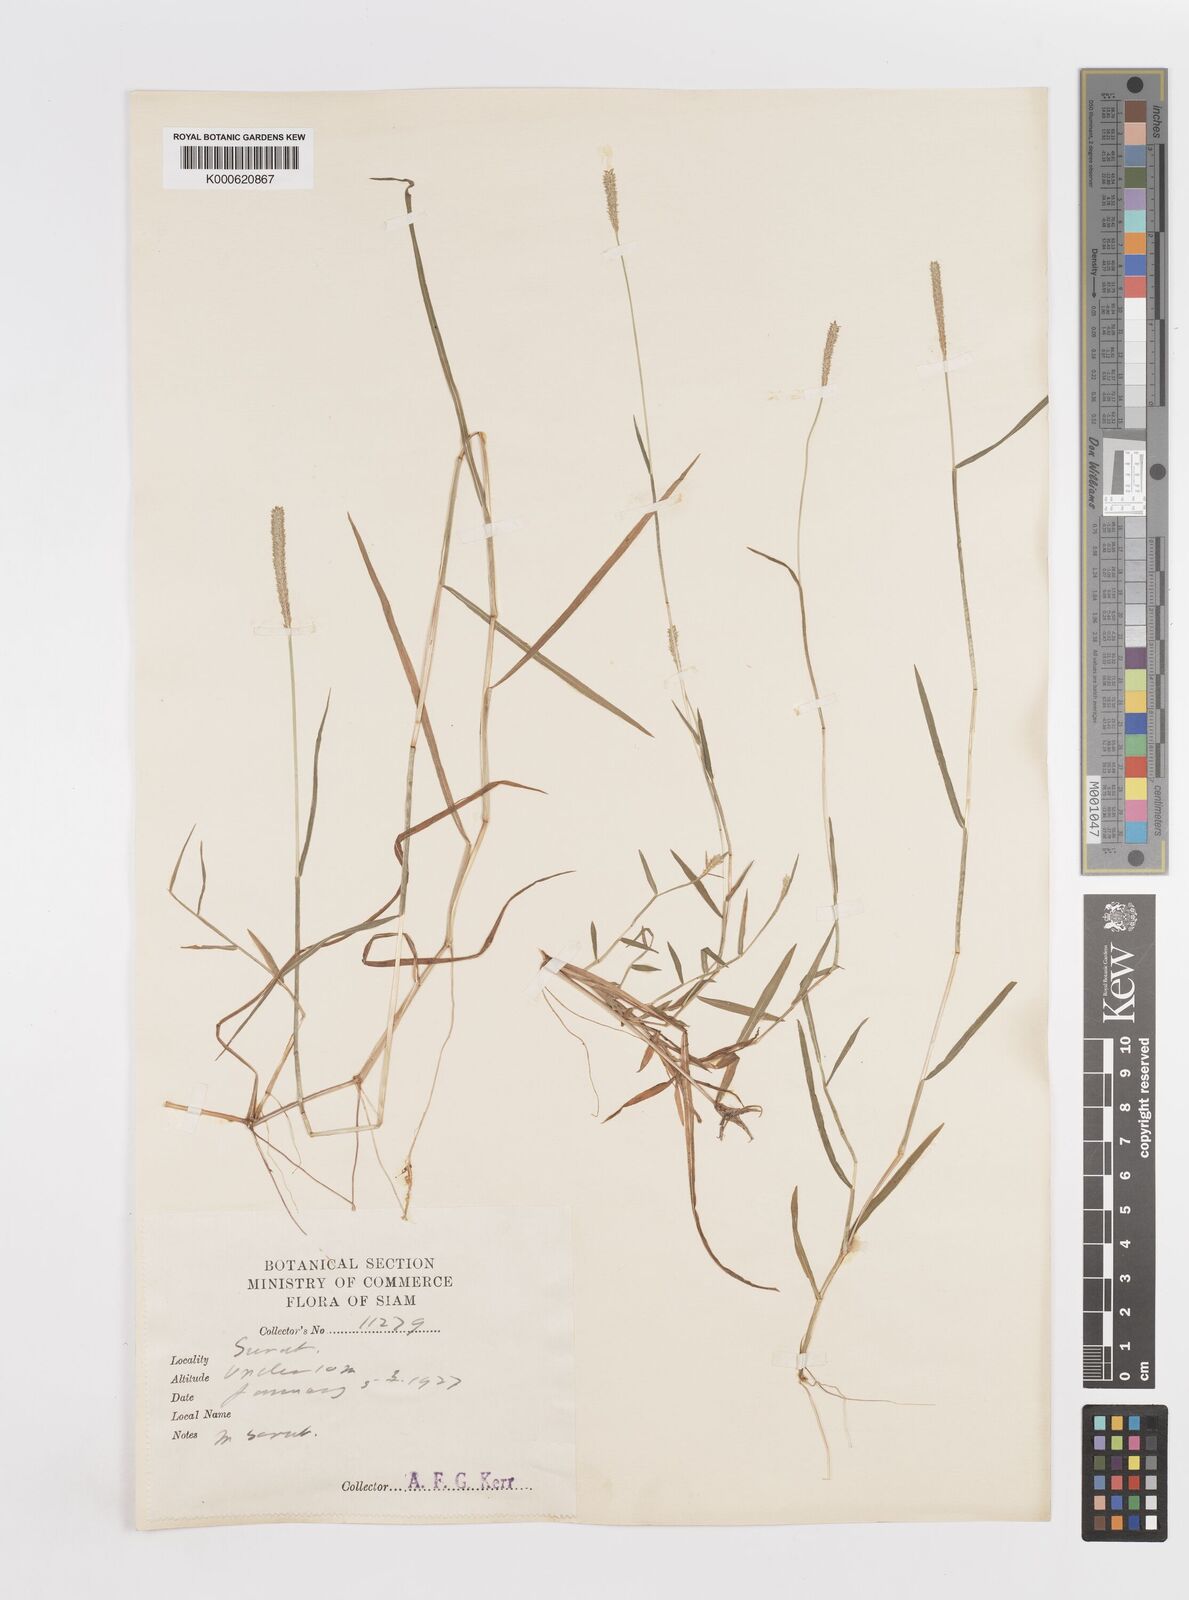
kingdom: Plantae
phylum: Tracheophyta
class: Liliopsida
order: Poales
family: Poaceae
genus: Sacciolepis
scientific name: Sacciolepis indica
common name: Glenwoodgrass
